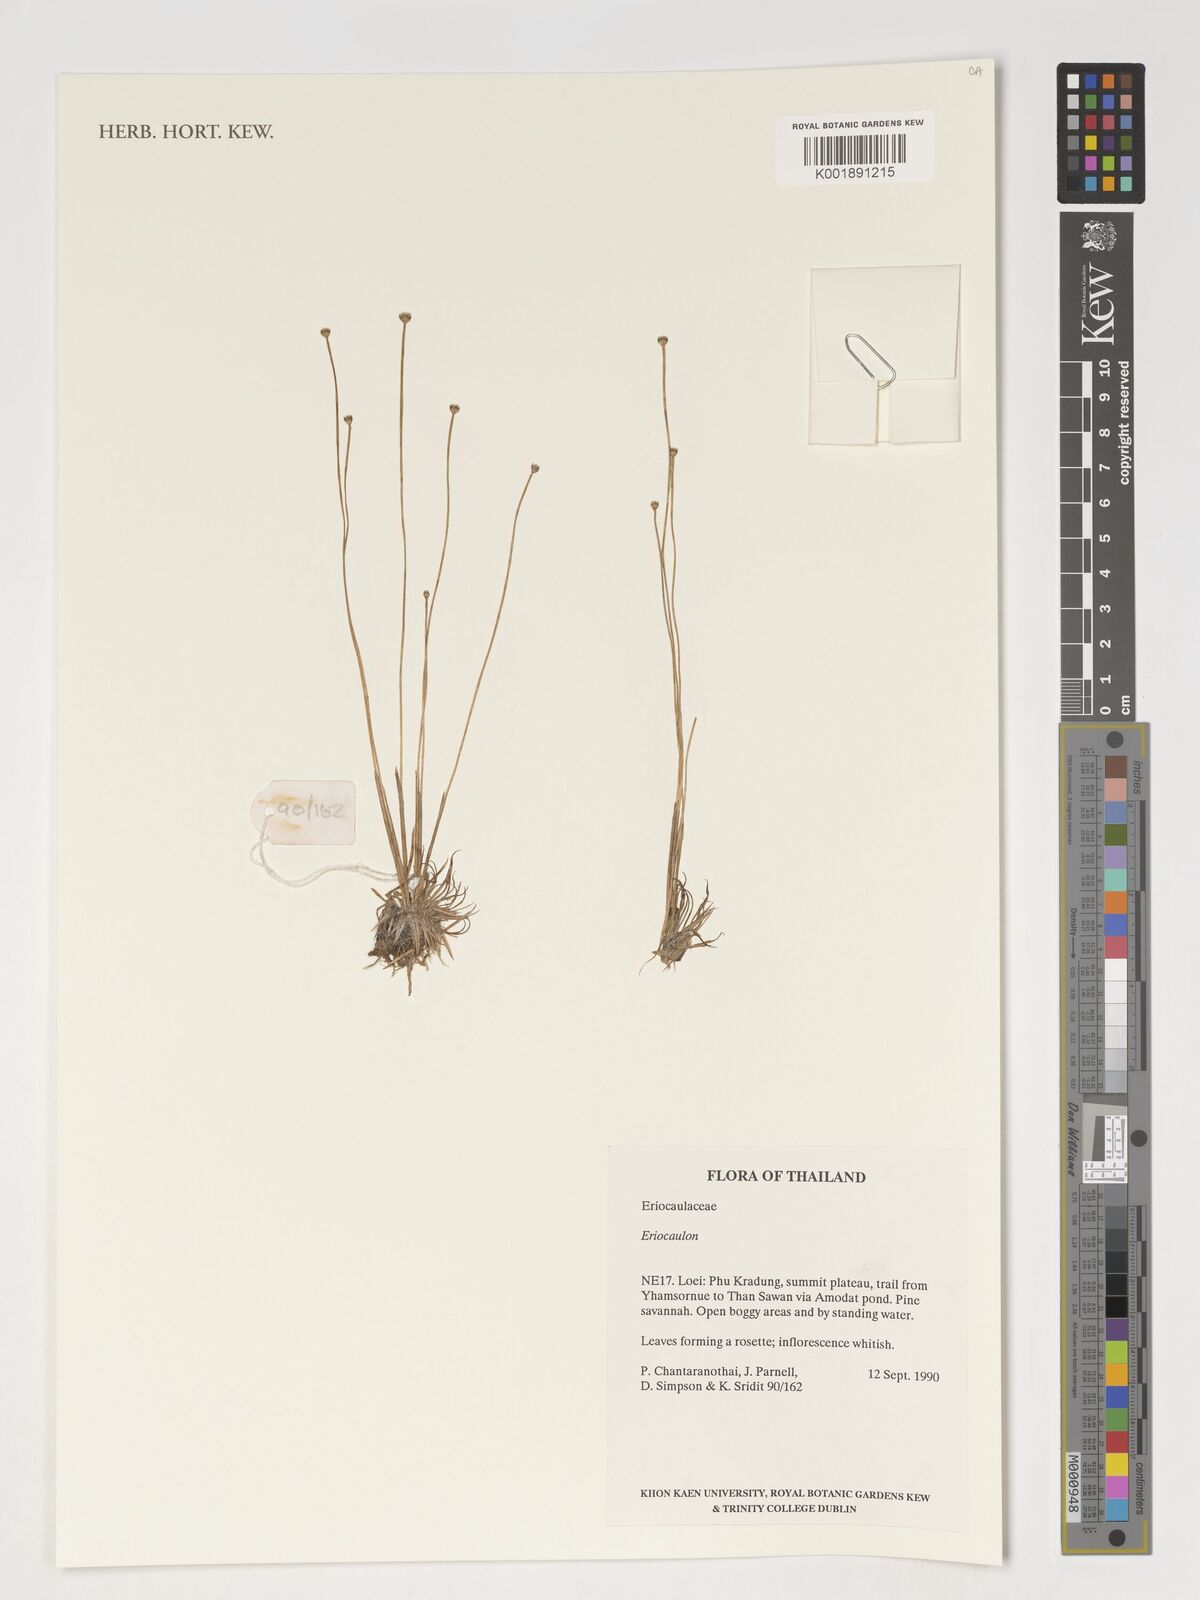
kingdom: Plantae
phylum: Tracheophyta
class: Liliopsida
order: Poales
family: Eriocaulaceae
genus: Eriocaulon
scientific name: Eriocaulon
